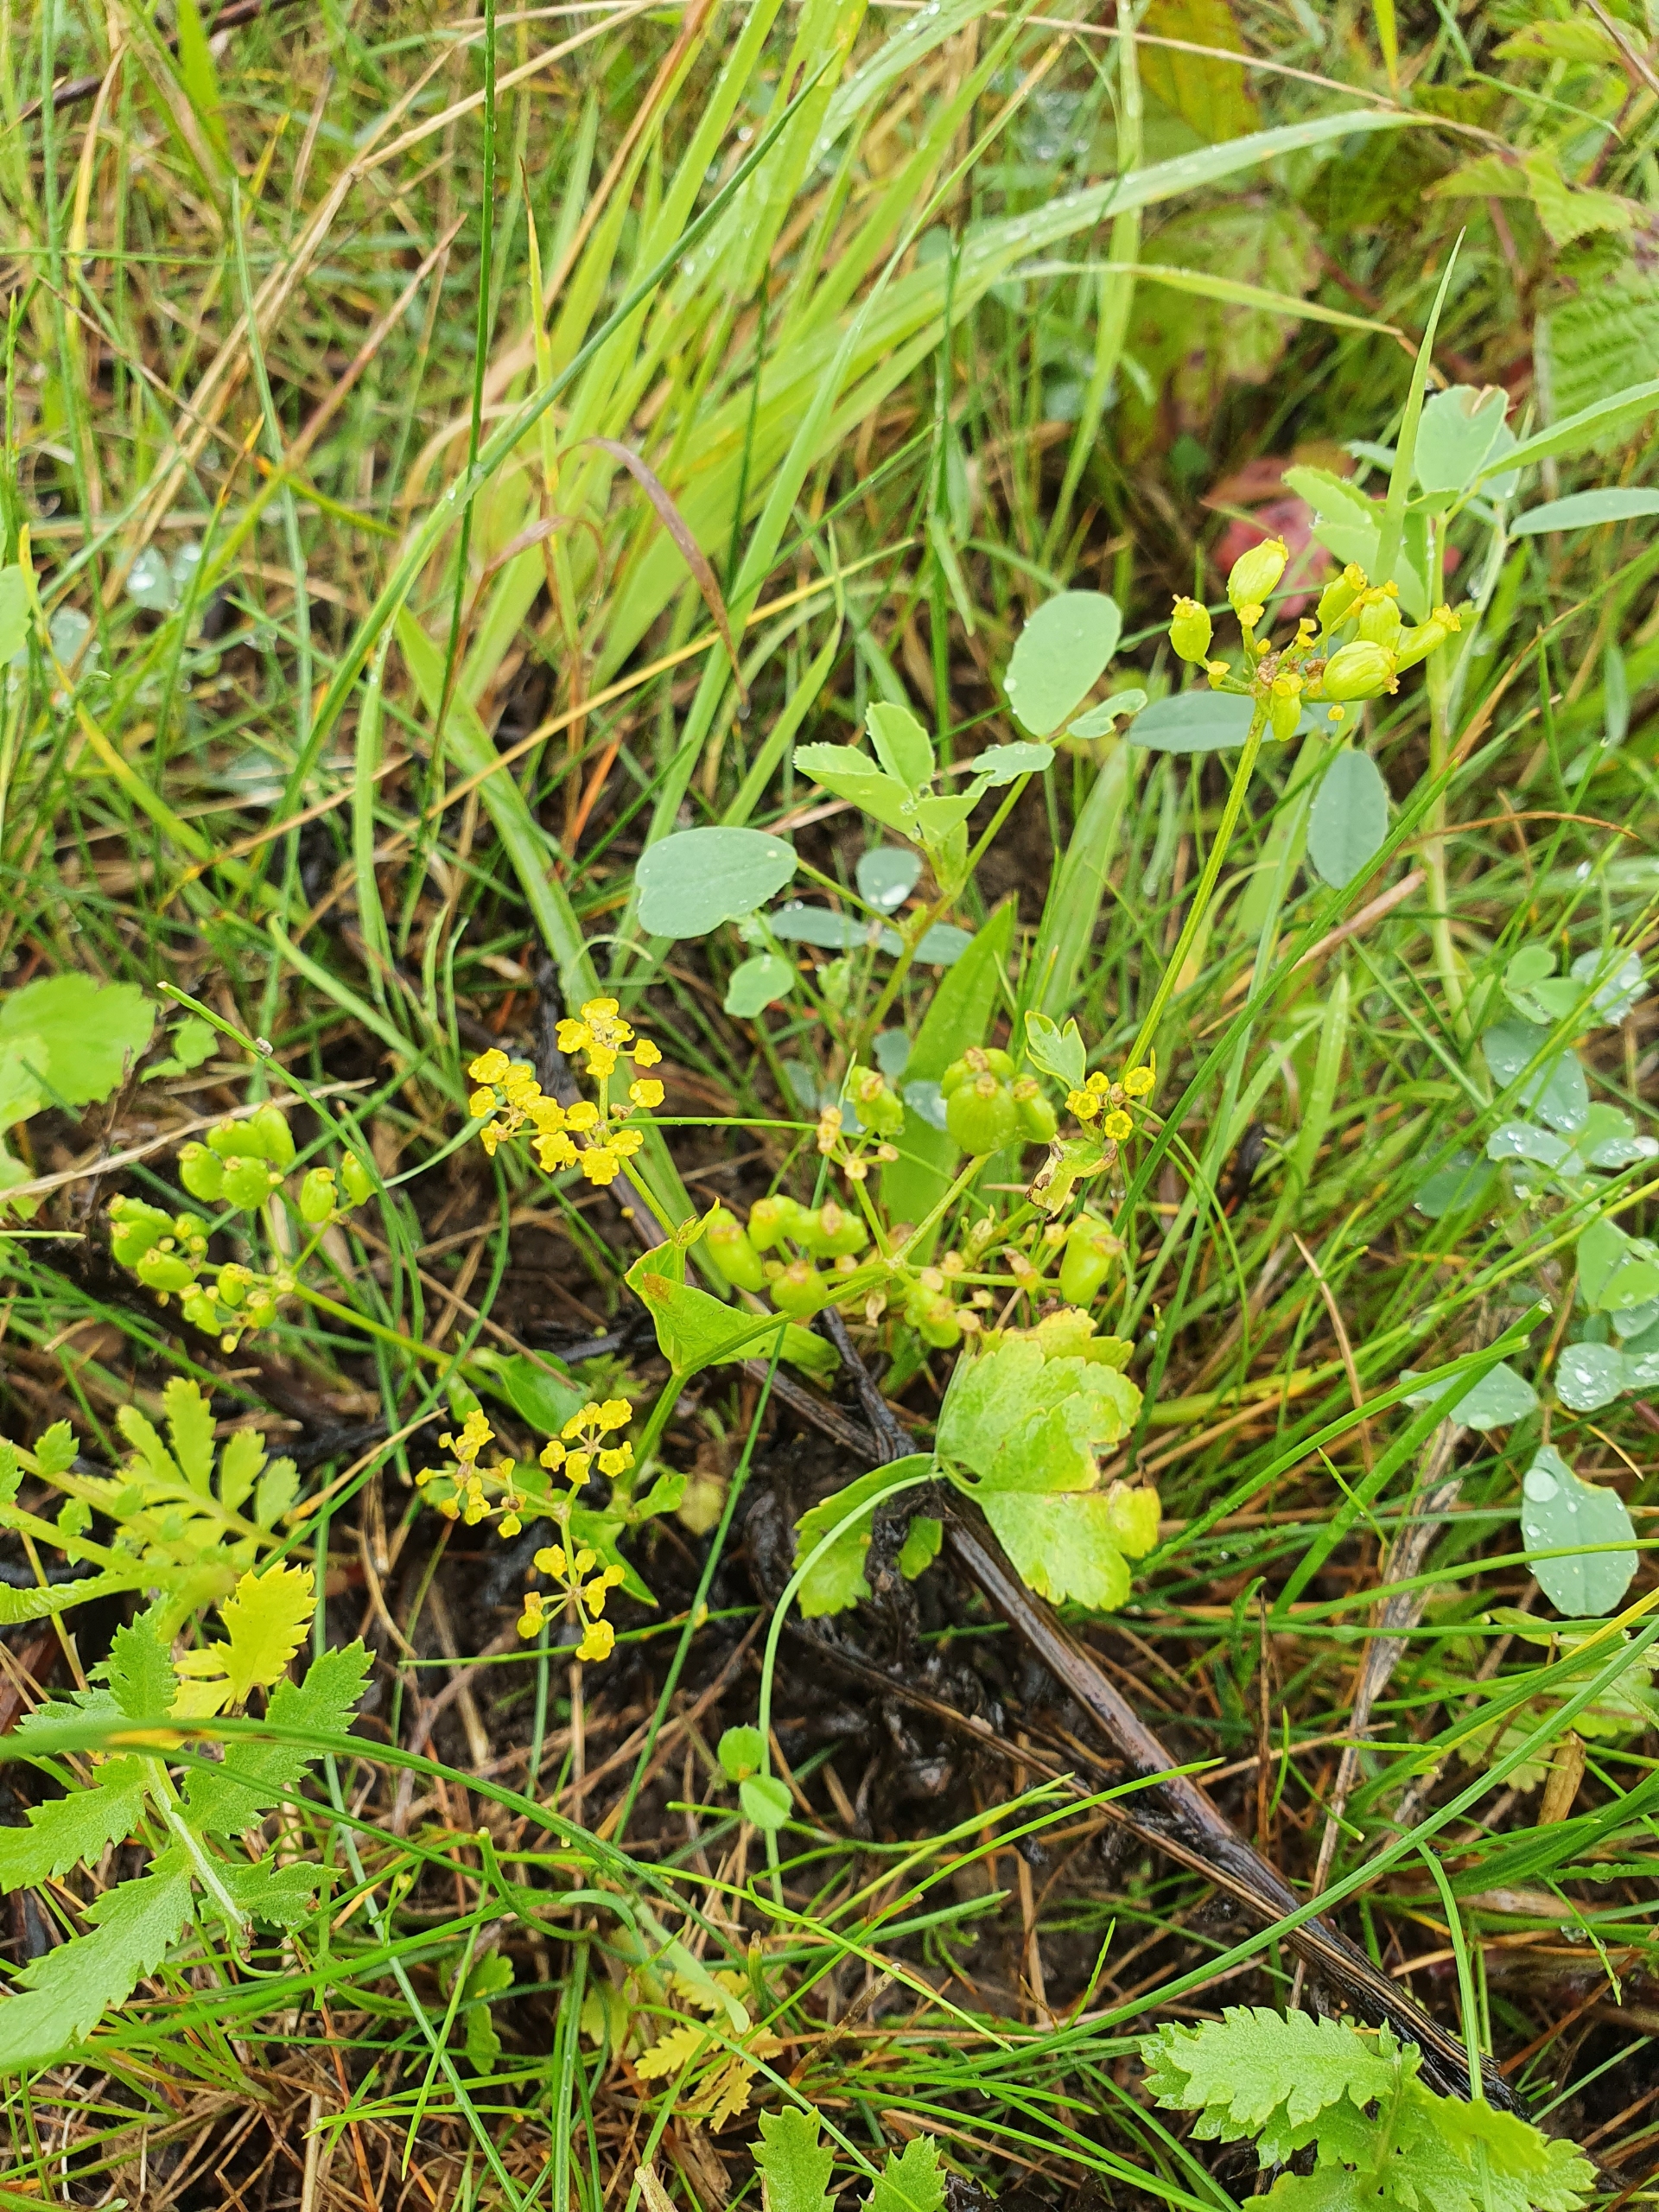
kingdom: Plantae
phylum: Tracheophyta
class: Magnoliopsida
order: Apiales
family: Apiaceae
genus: Pastinaca
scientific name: Pastinaca sativa
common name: Pastinak
